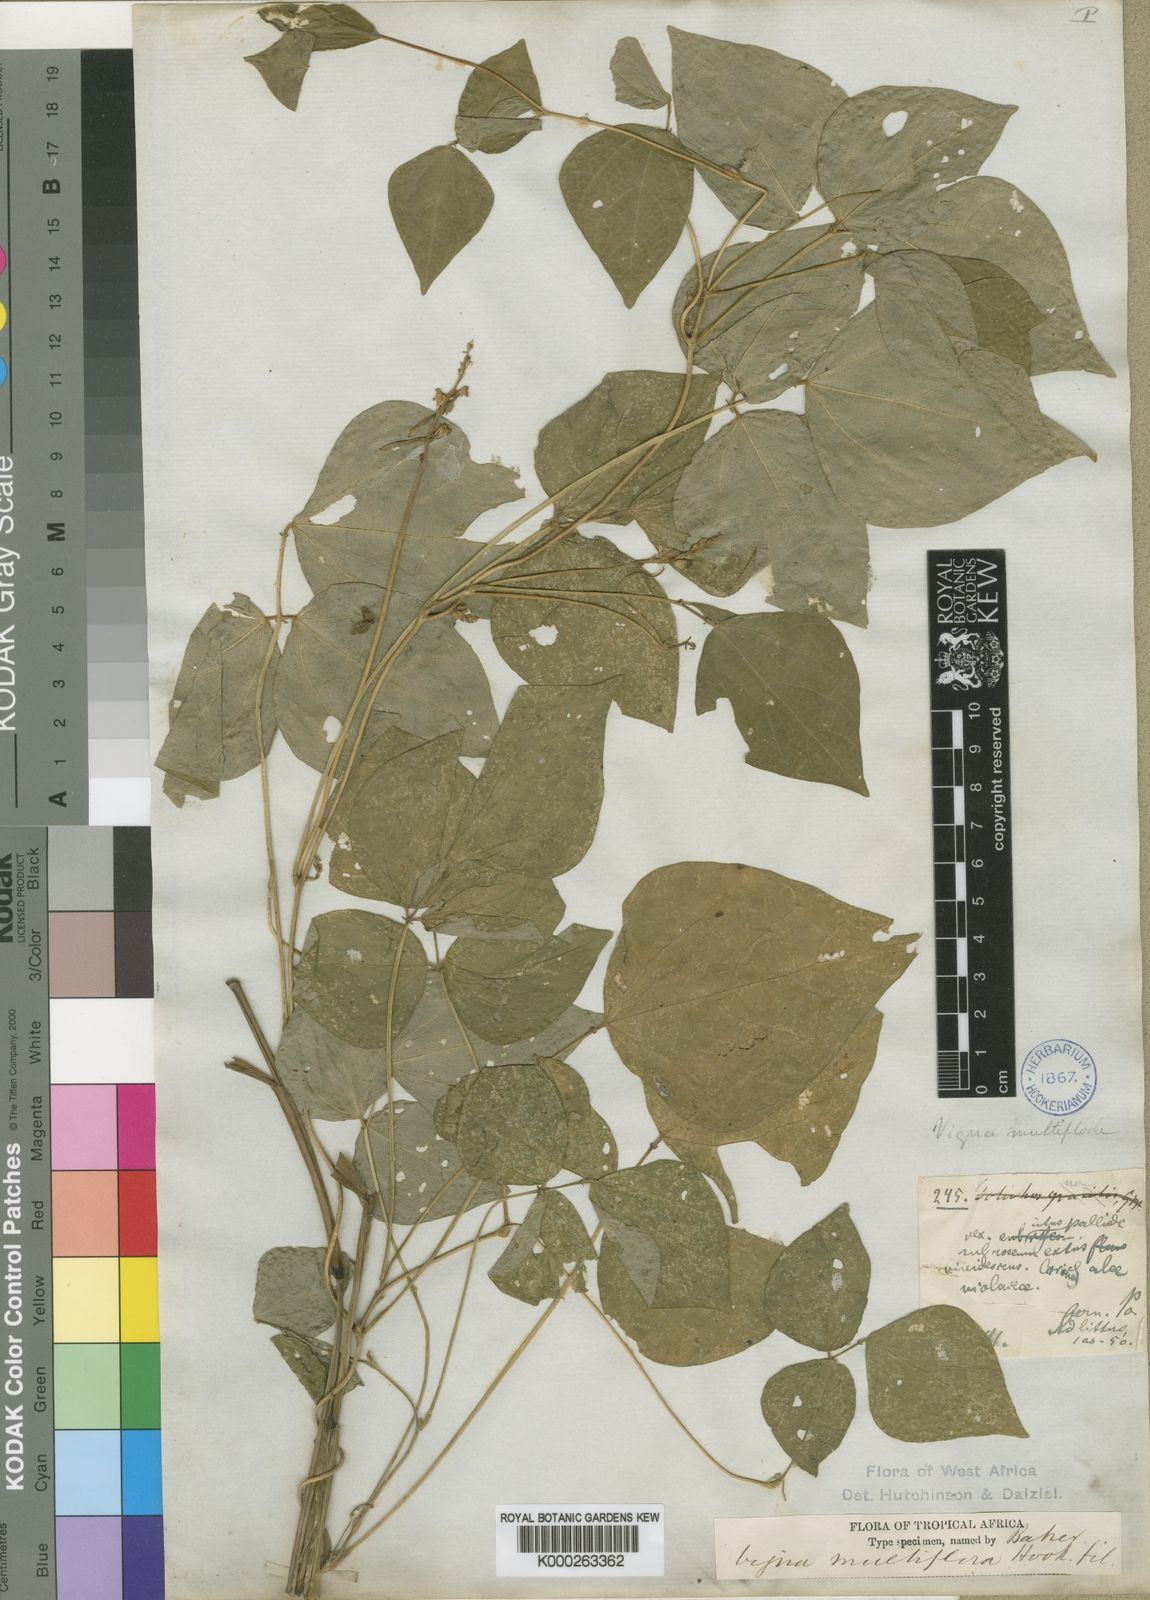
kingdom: Plantae
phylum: Tracheophyta
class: Magnoliopsida
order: Fabales
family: Fabaceae
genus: Vigna
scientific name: Vigna gracilis
